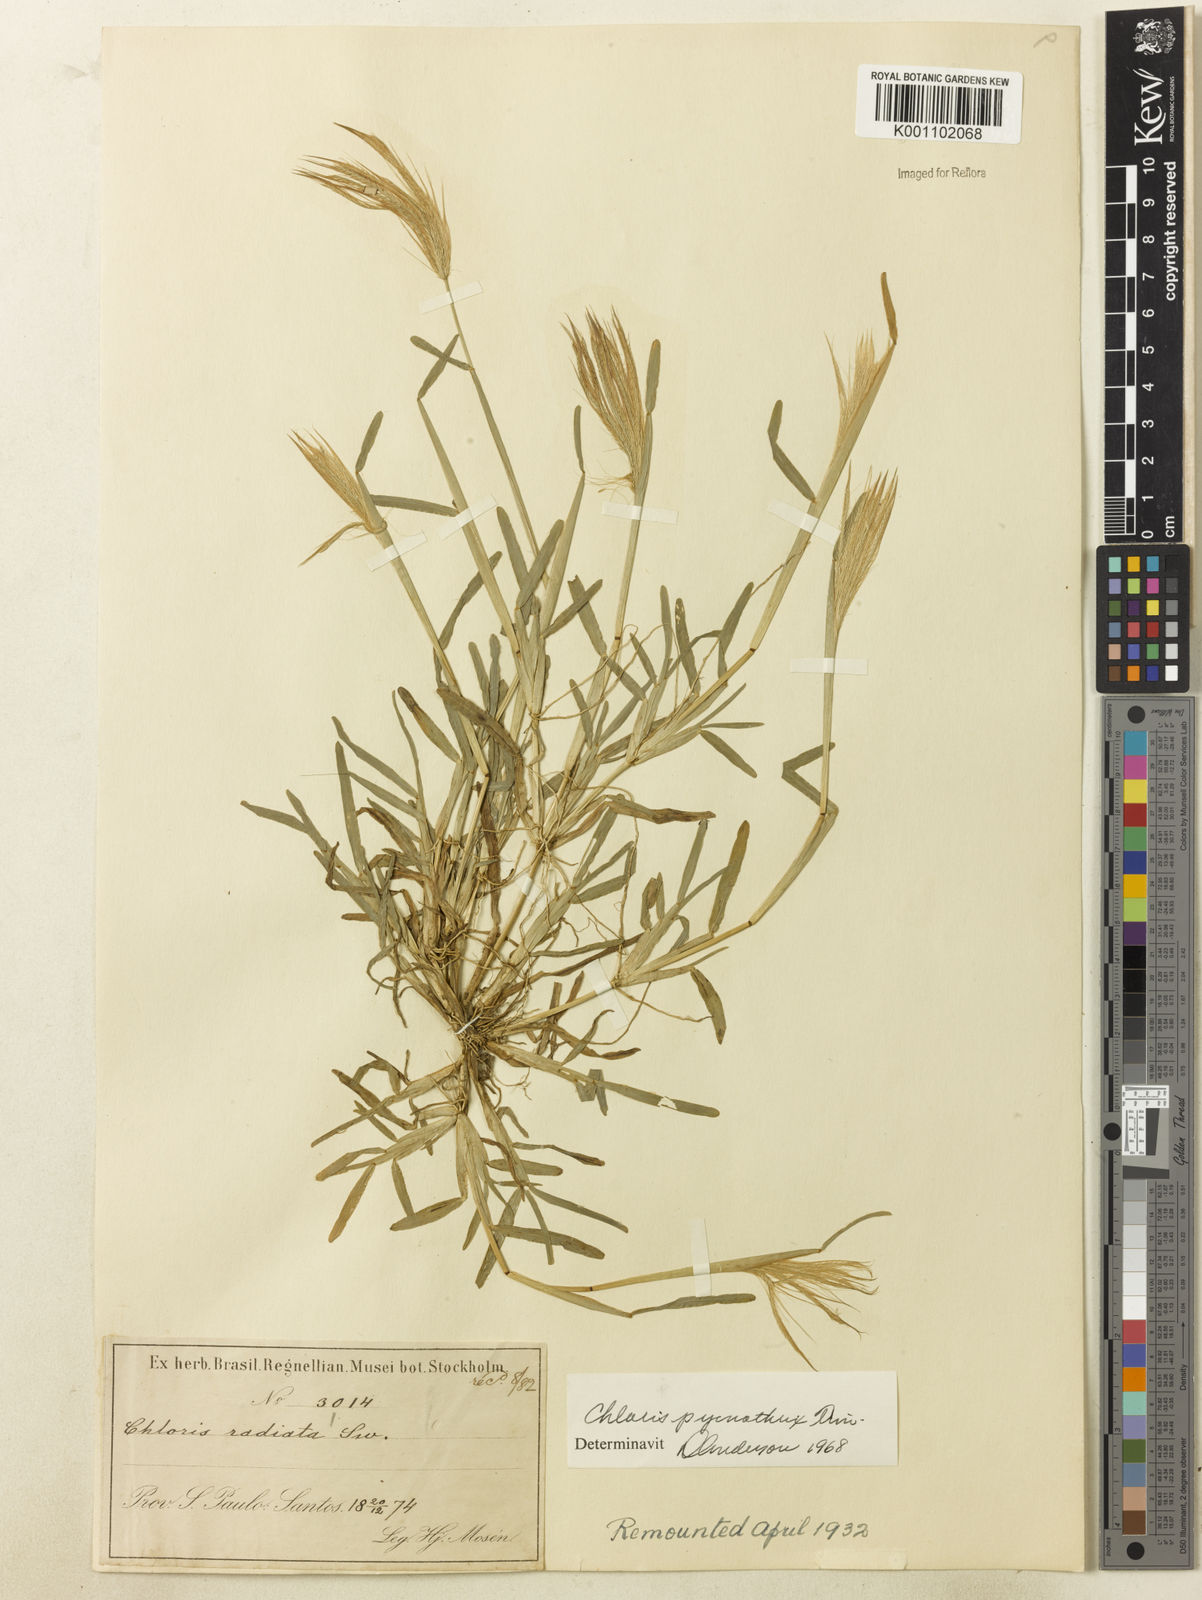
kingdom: Plantae
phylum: Tracheophyta
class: Liliopsida
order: Poales
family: Poaceae
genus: Chloris
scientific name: Chloris pycnothrix
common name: Spiderweb chloris
